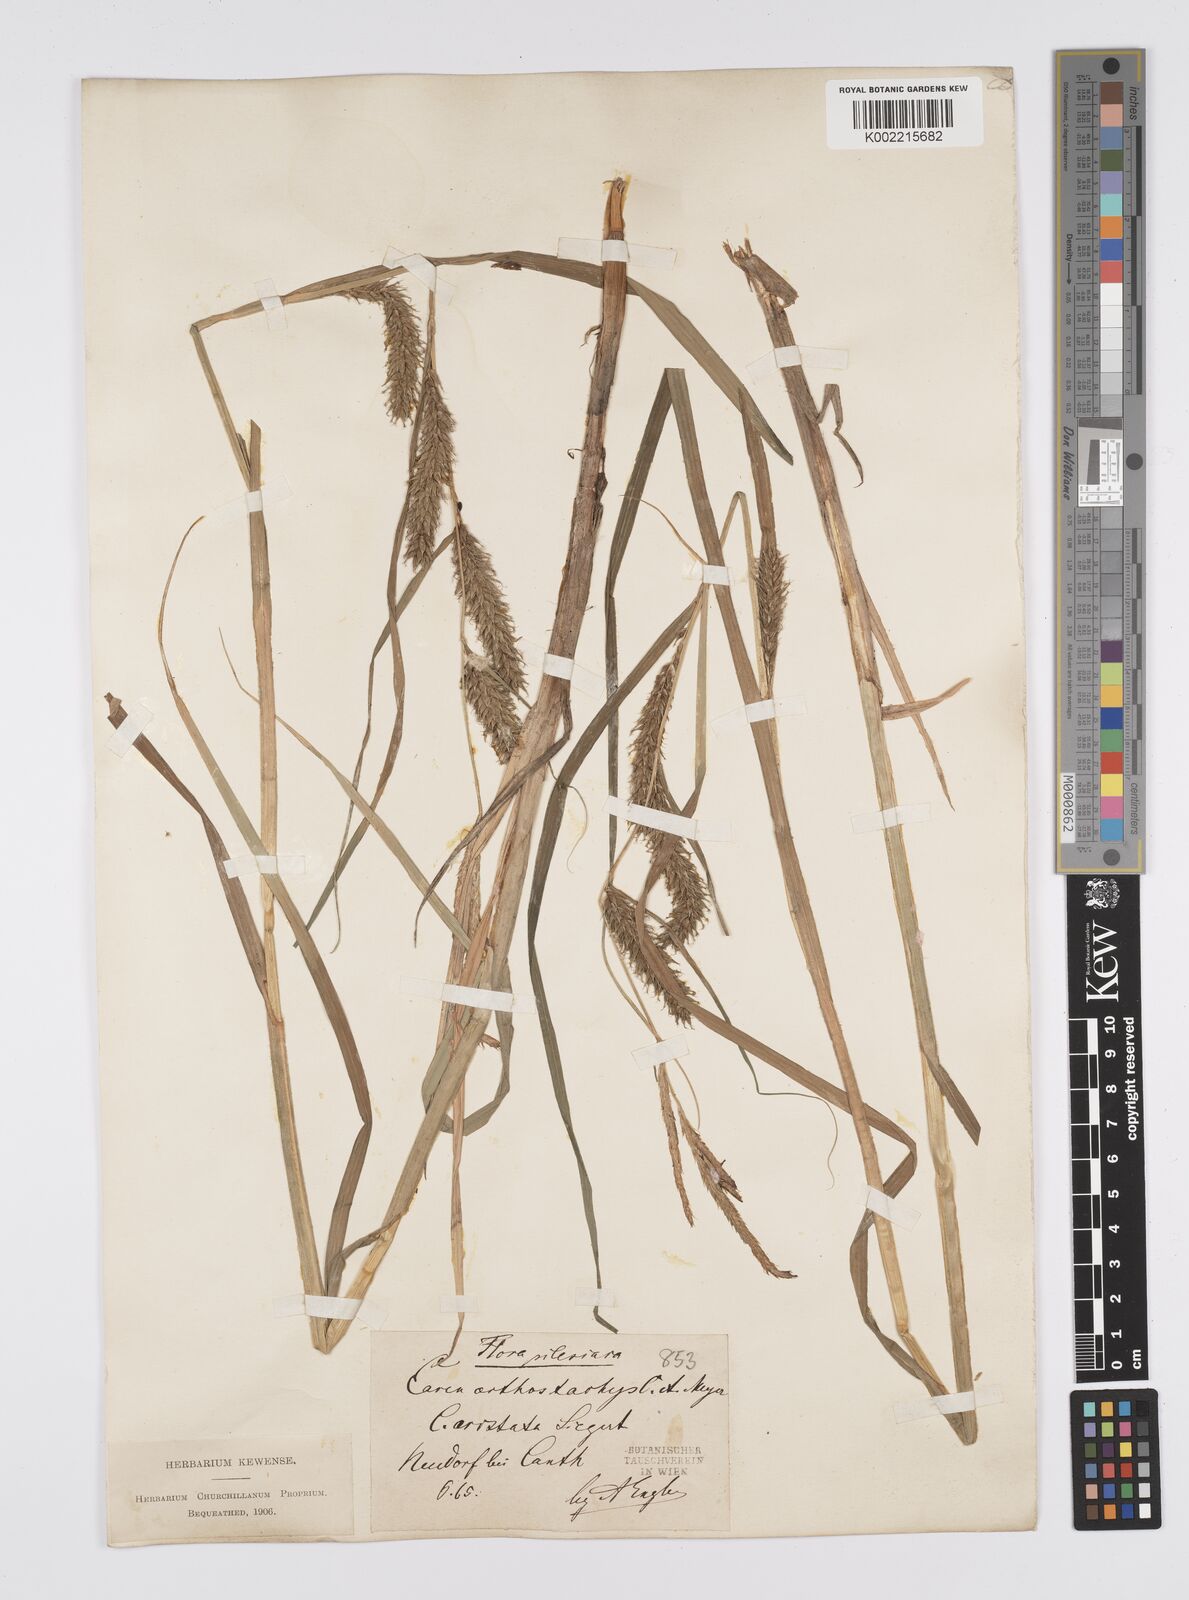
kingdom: Plantae
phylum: Tracheophyta
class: Liliopsida
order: Poales
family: Cyperaceae
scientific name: Cyperaceae
